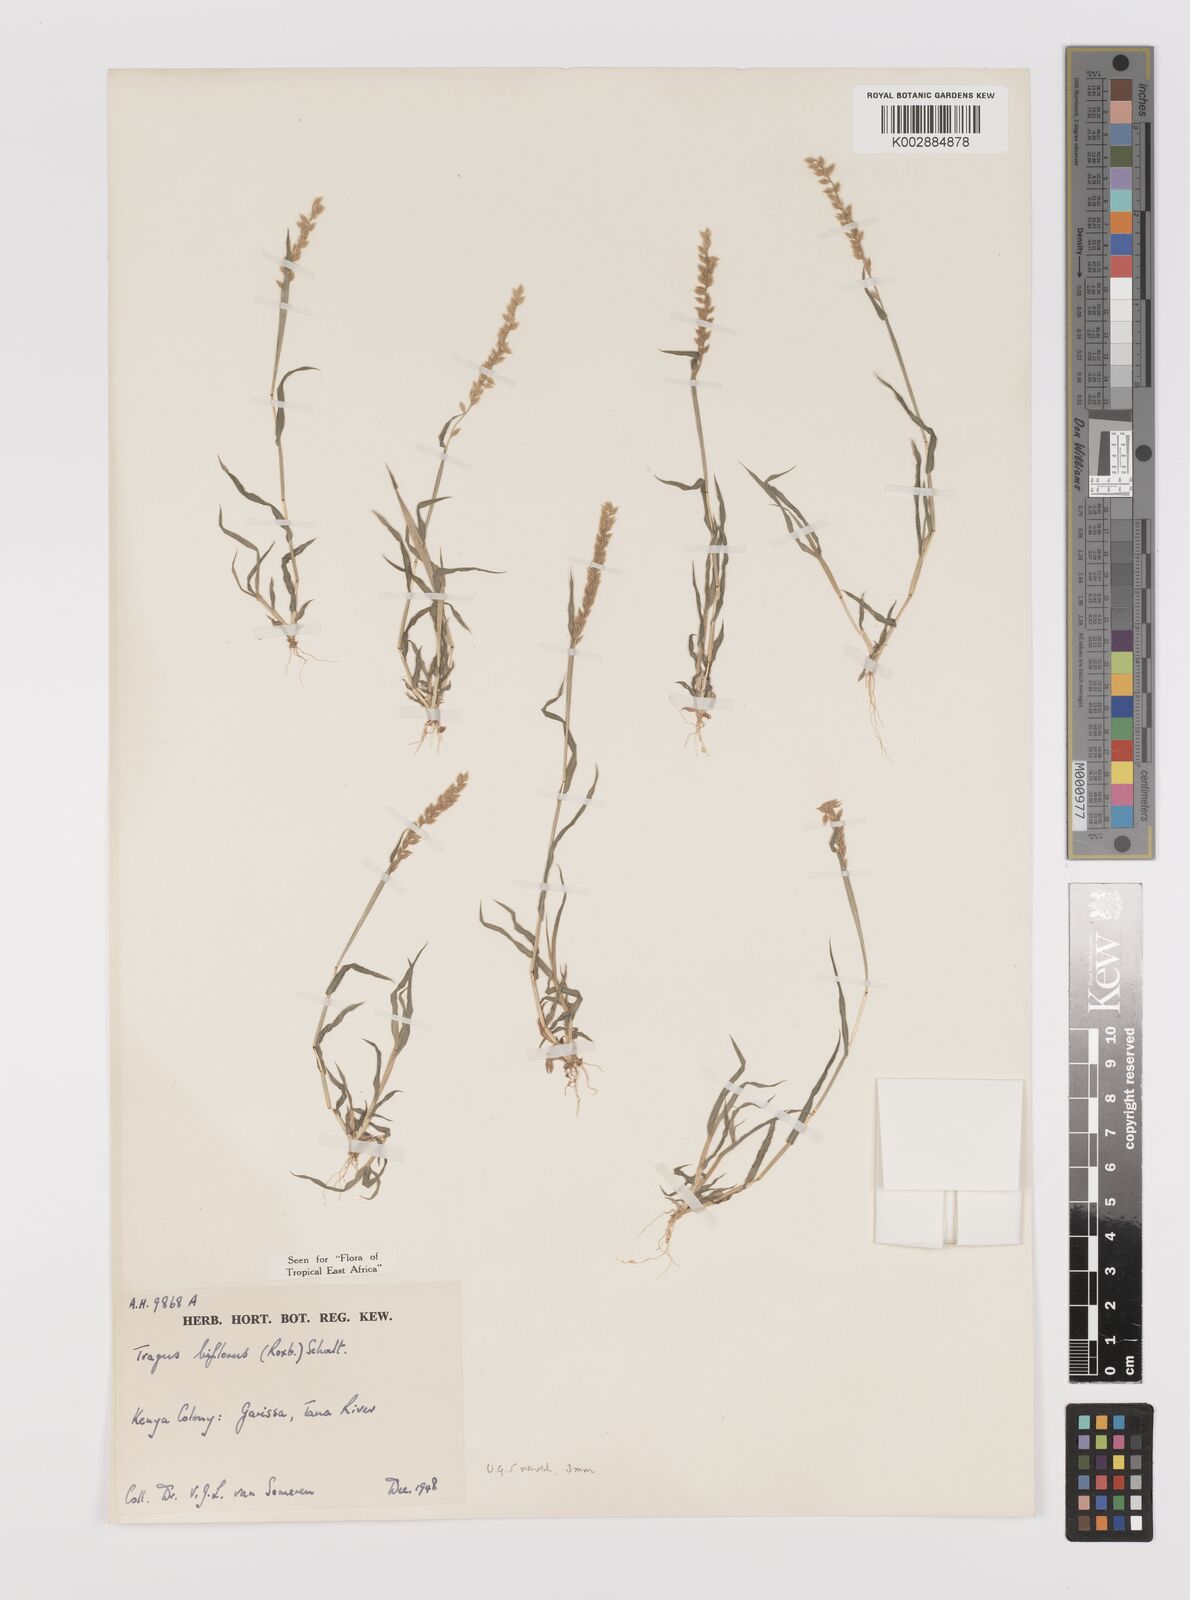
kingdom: Plantae
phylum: Tracheophyta
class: Liliopsida
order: Poales
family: Poaceae
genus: Tragus
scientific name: Tragus berteronianus
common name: African bur-grass
